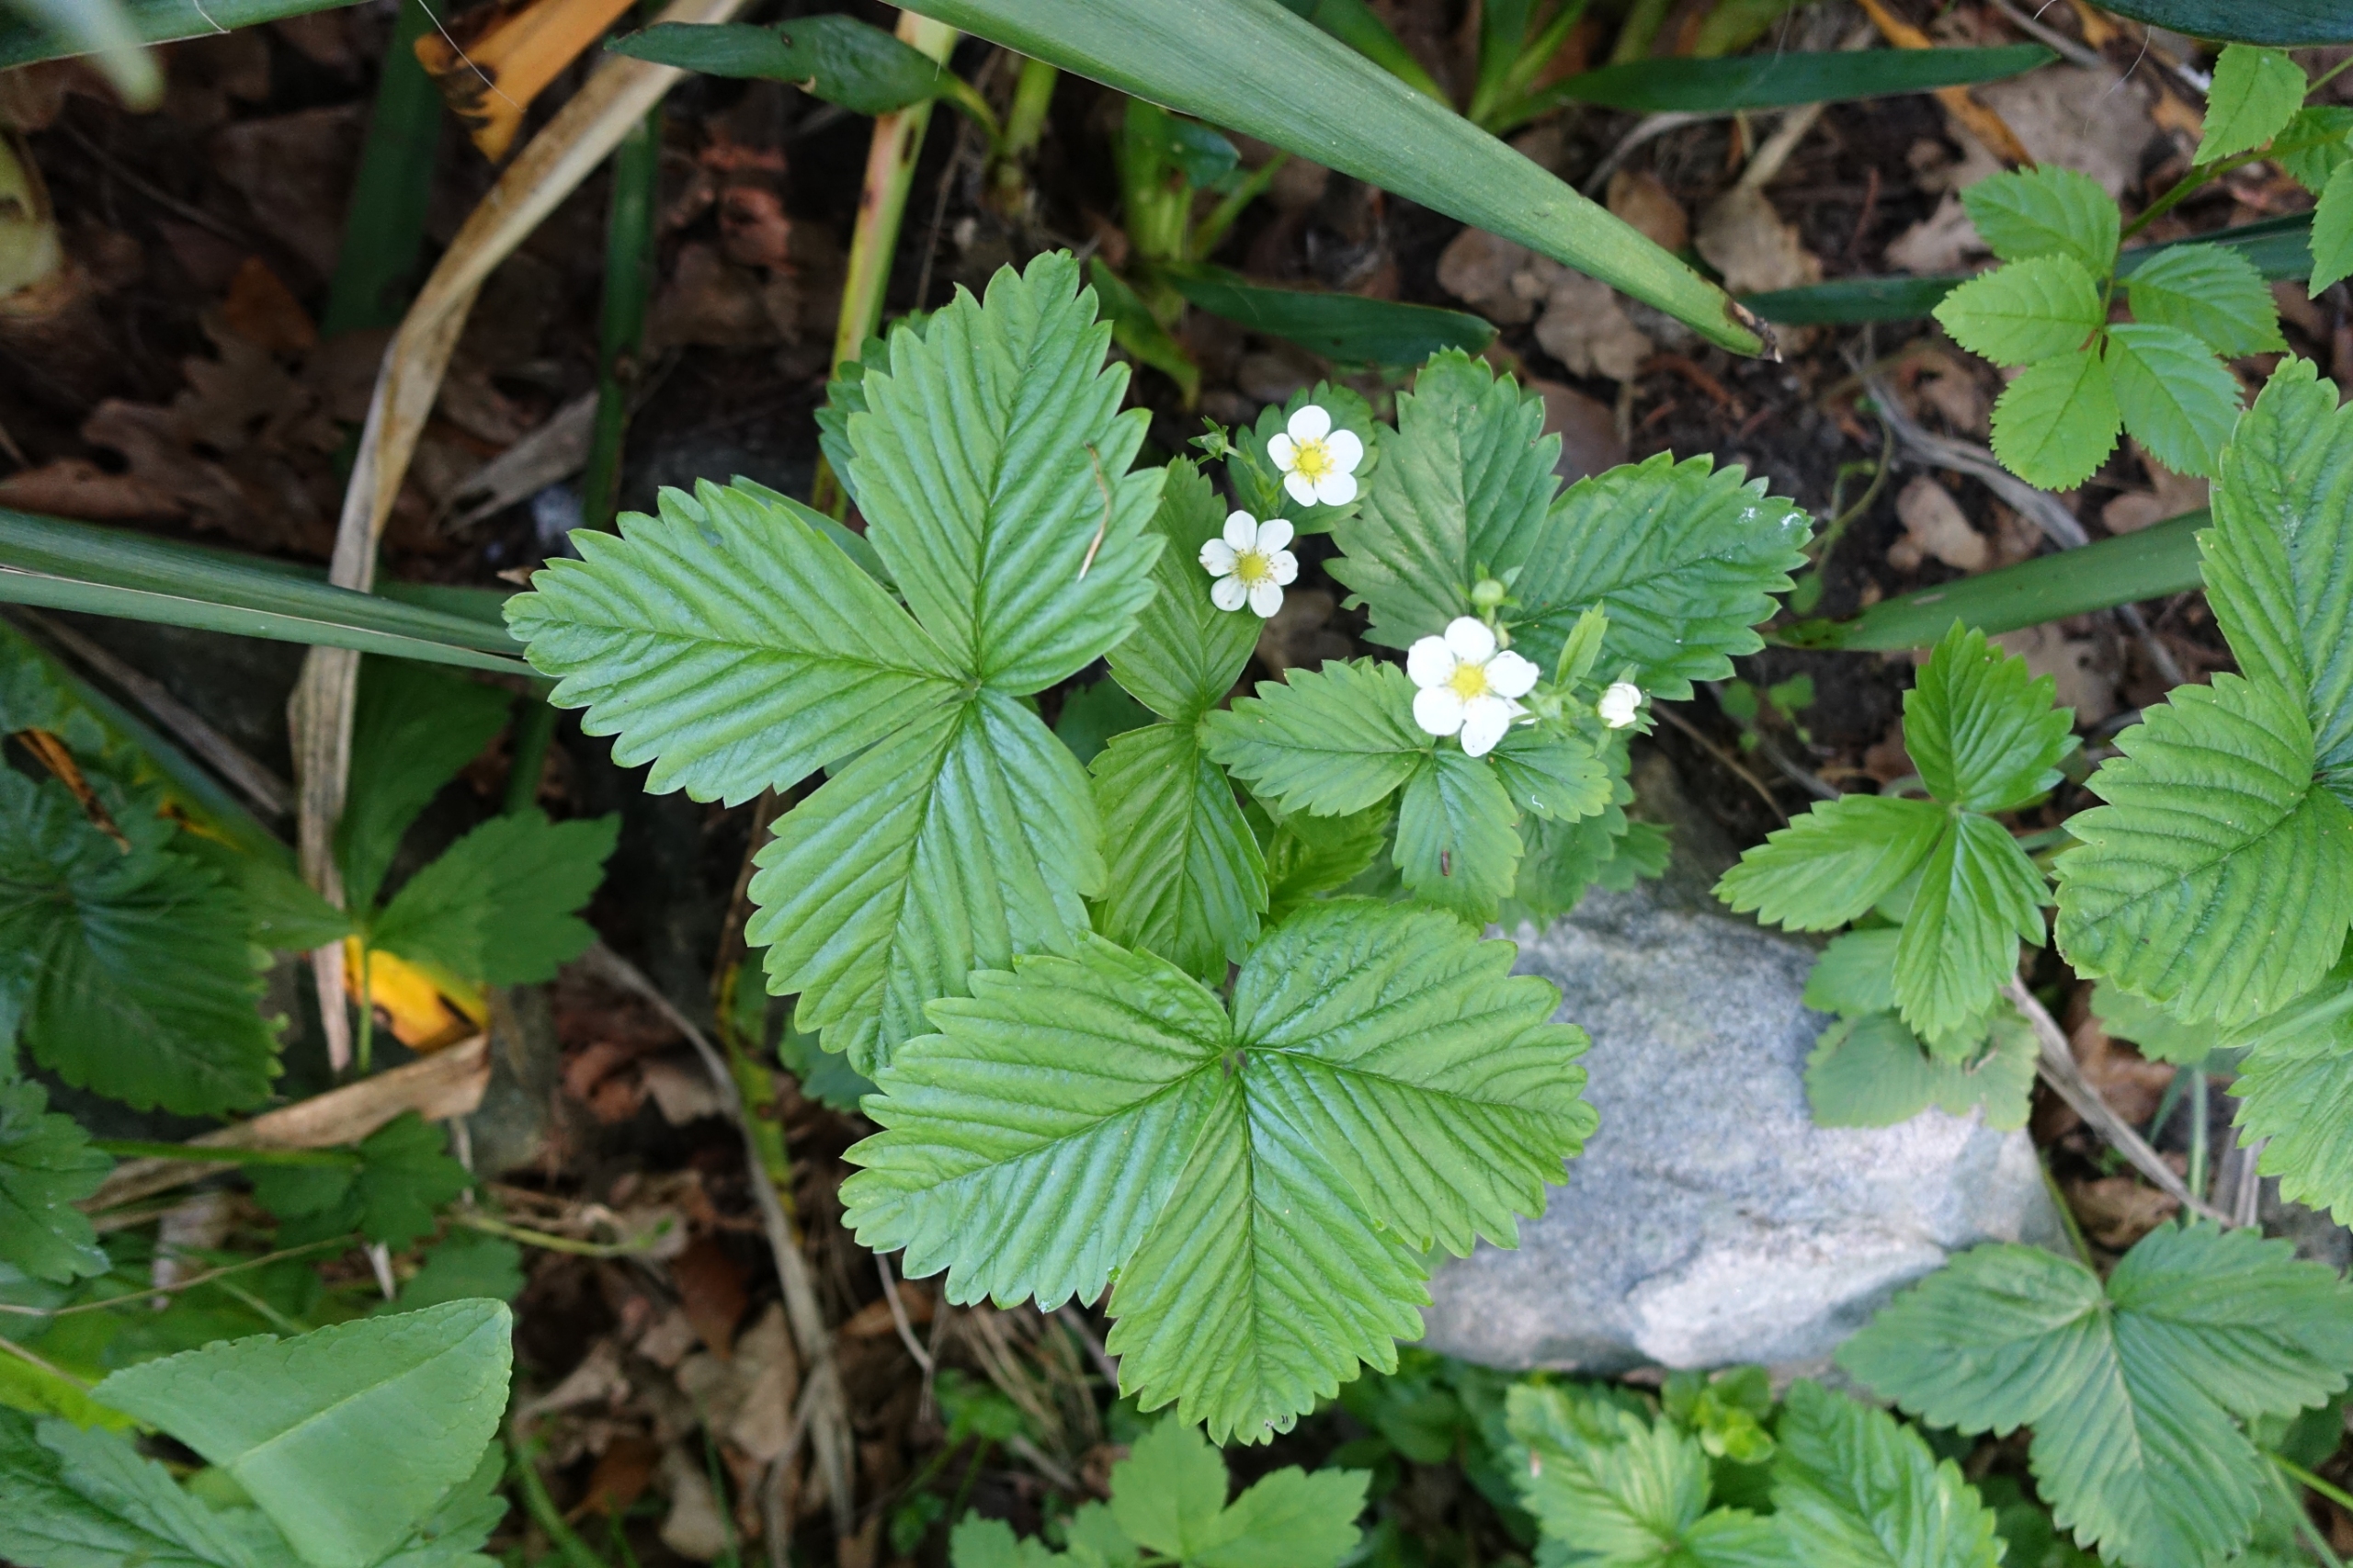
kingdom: Plantae
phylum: Tracheophyta
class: Magnoliopsida
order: Rosales
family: Rosaceae
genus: Fragaria
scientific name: Fragaria vesca
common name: Skov-jordbær
